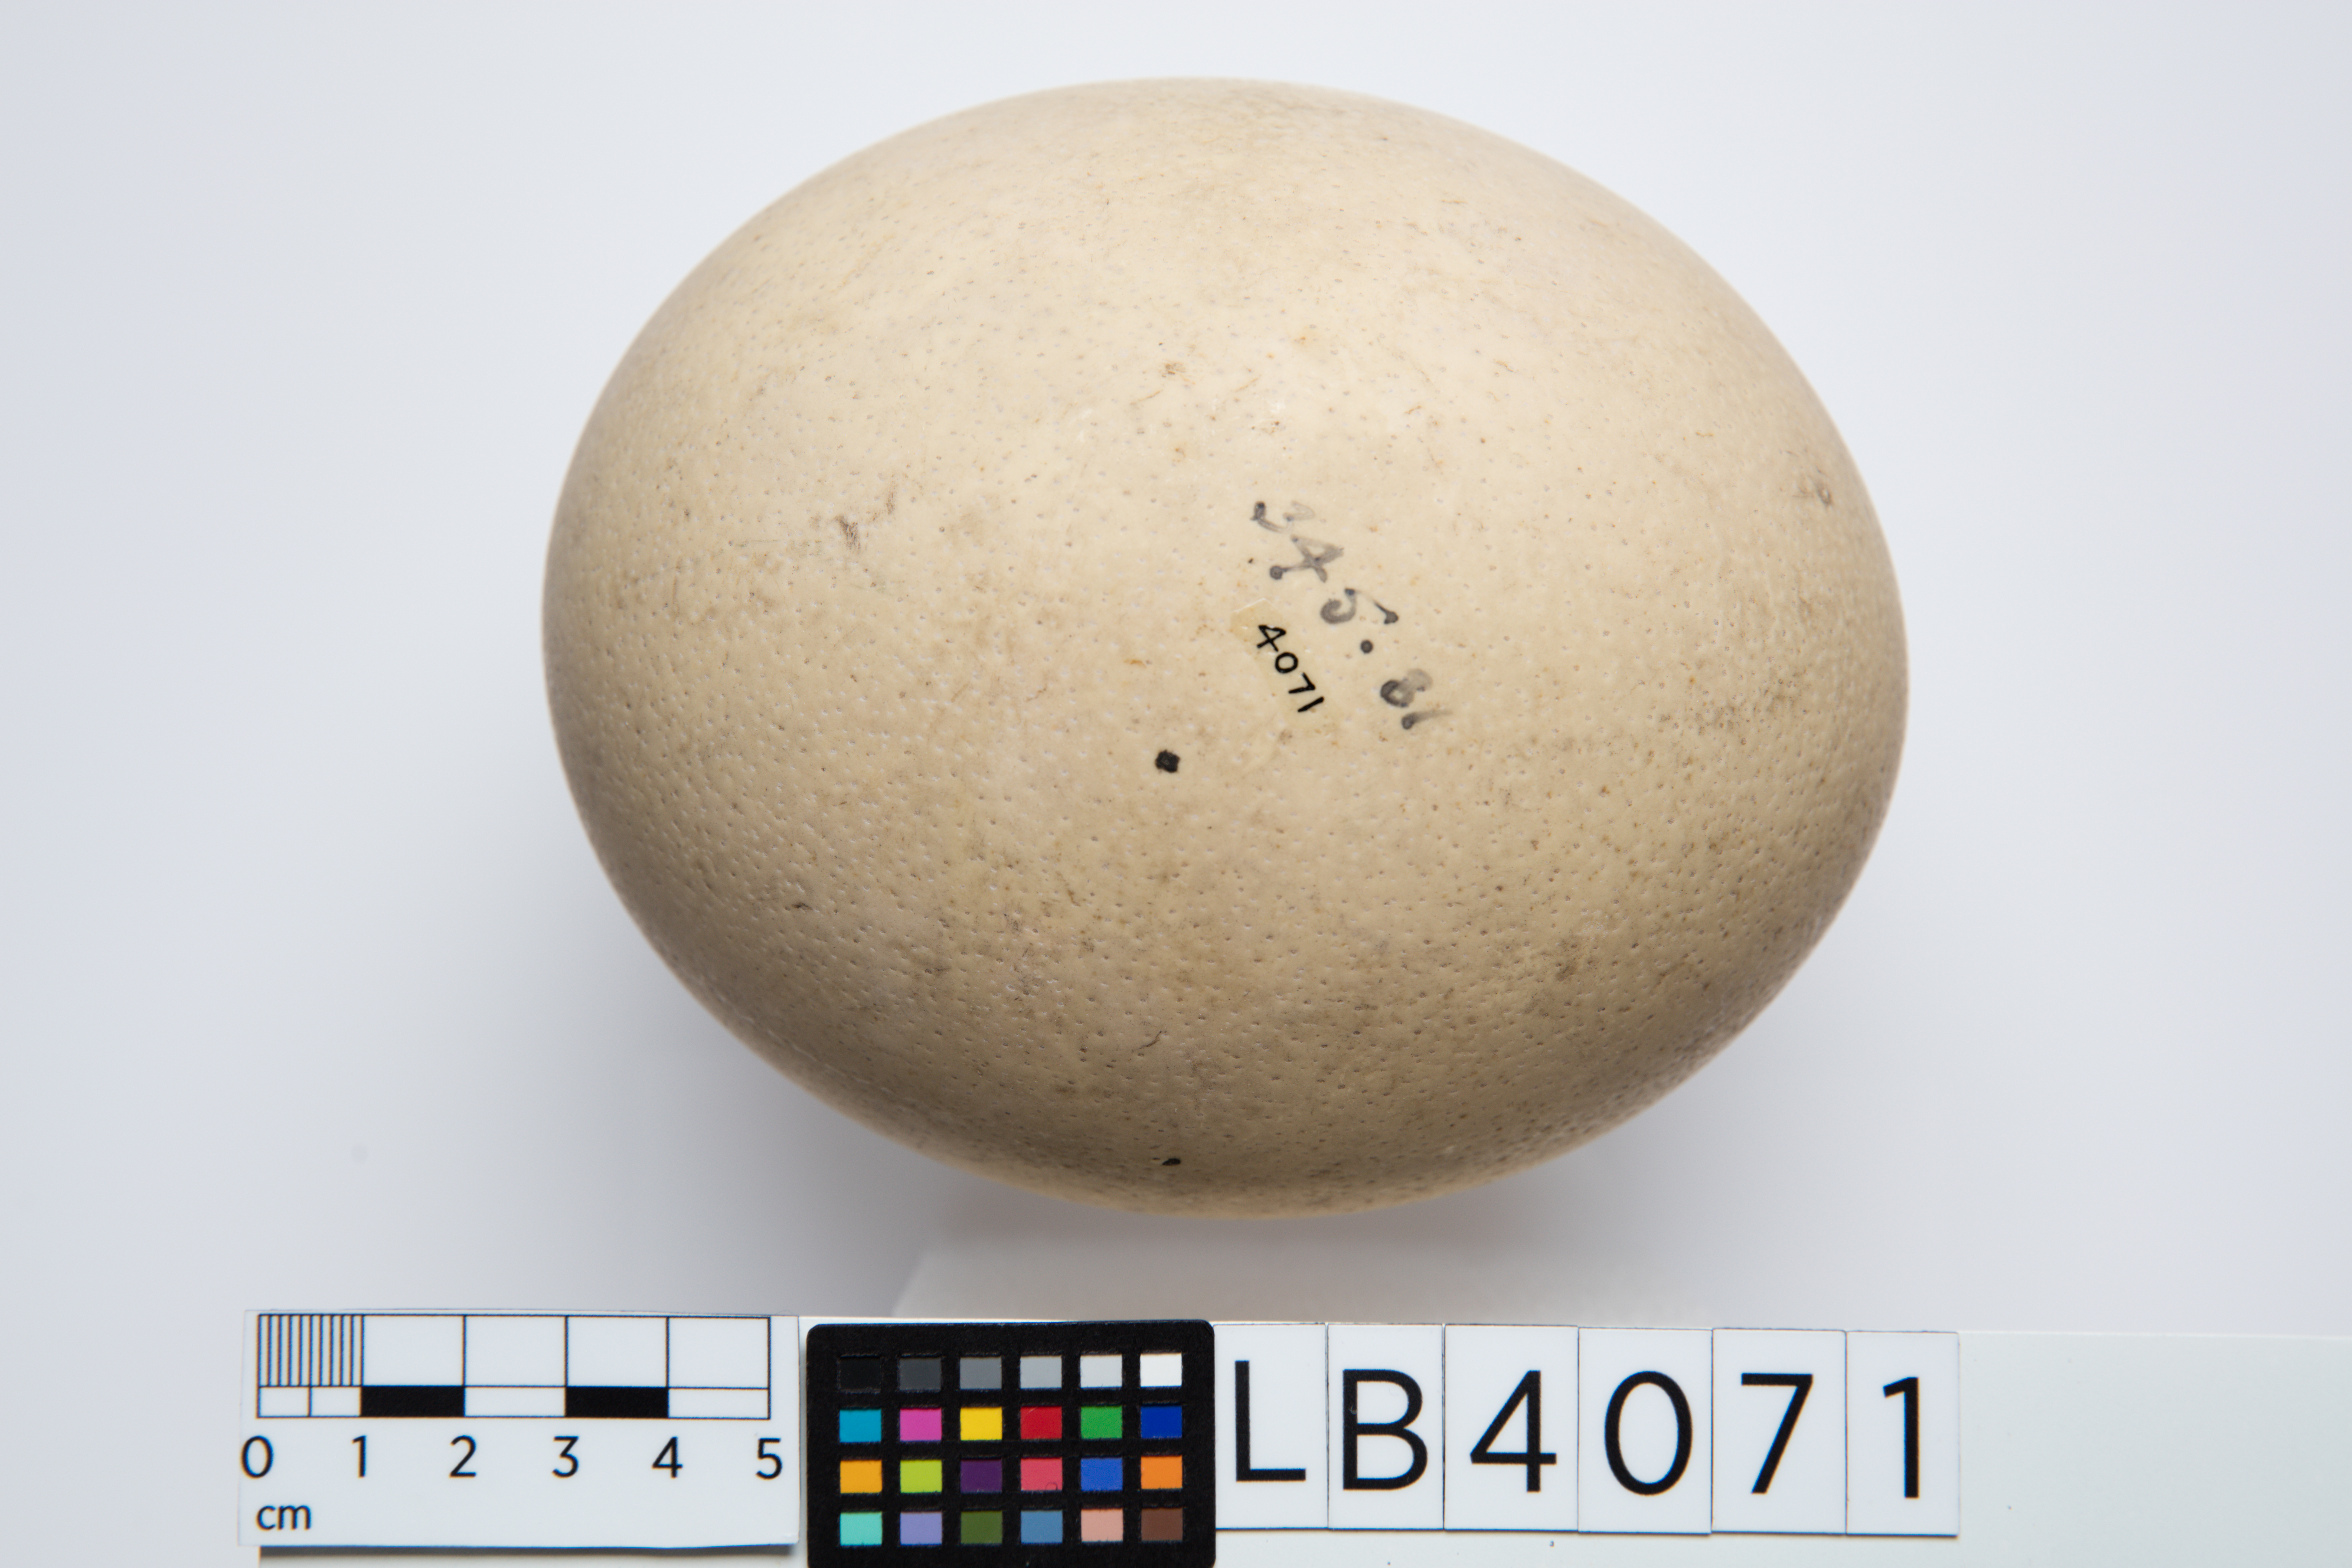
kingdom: Animalia
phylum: Chordata
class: Aves
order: Struthioniformes
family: Struthionidae
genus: Struthio
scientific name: Struthio camelus
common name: Common ostrich
